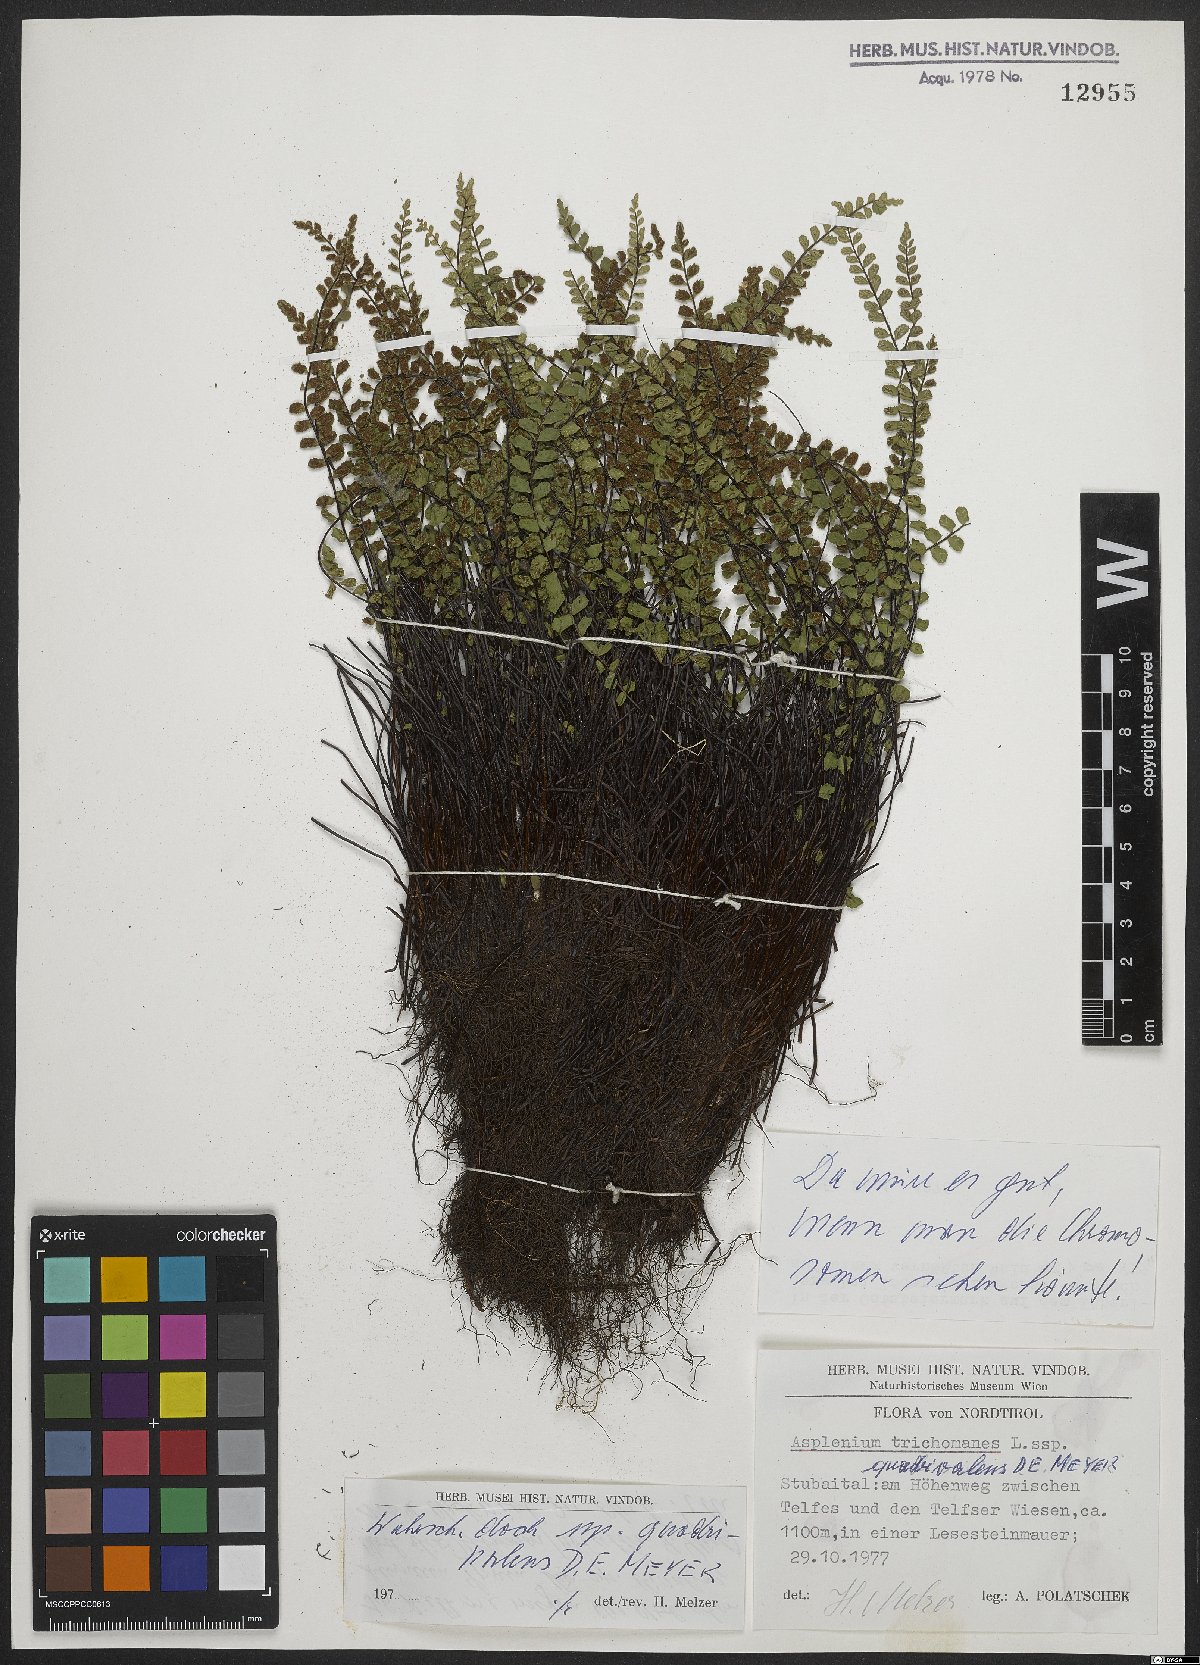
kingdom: Plantae
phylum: Tracheophyta
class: Polypodiopsida
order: Polypodiales
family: Aspleniaceae
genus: Asplenium
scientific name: Asplenium quadrivalens
